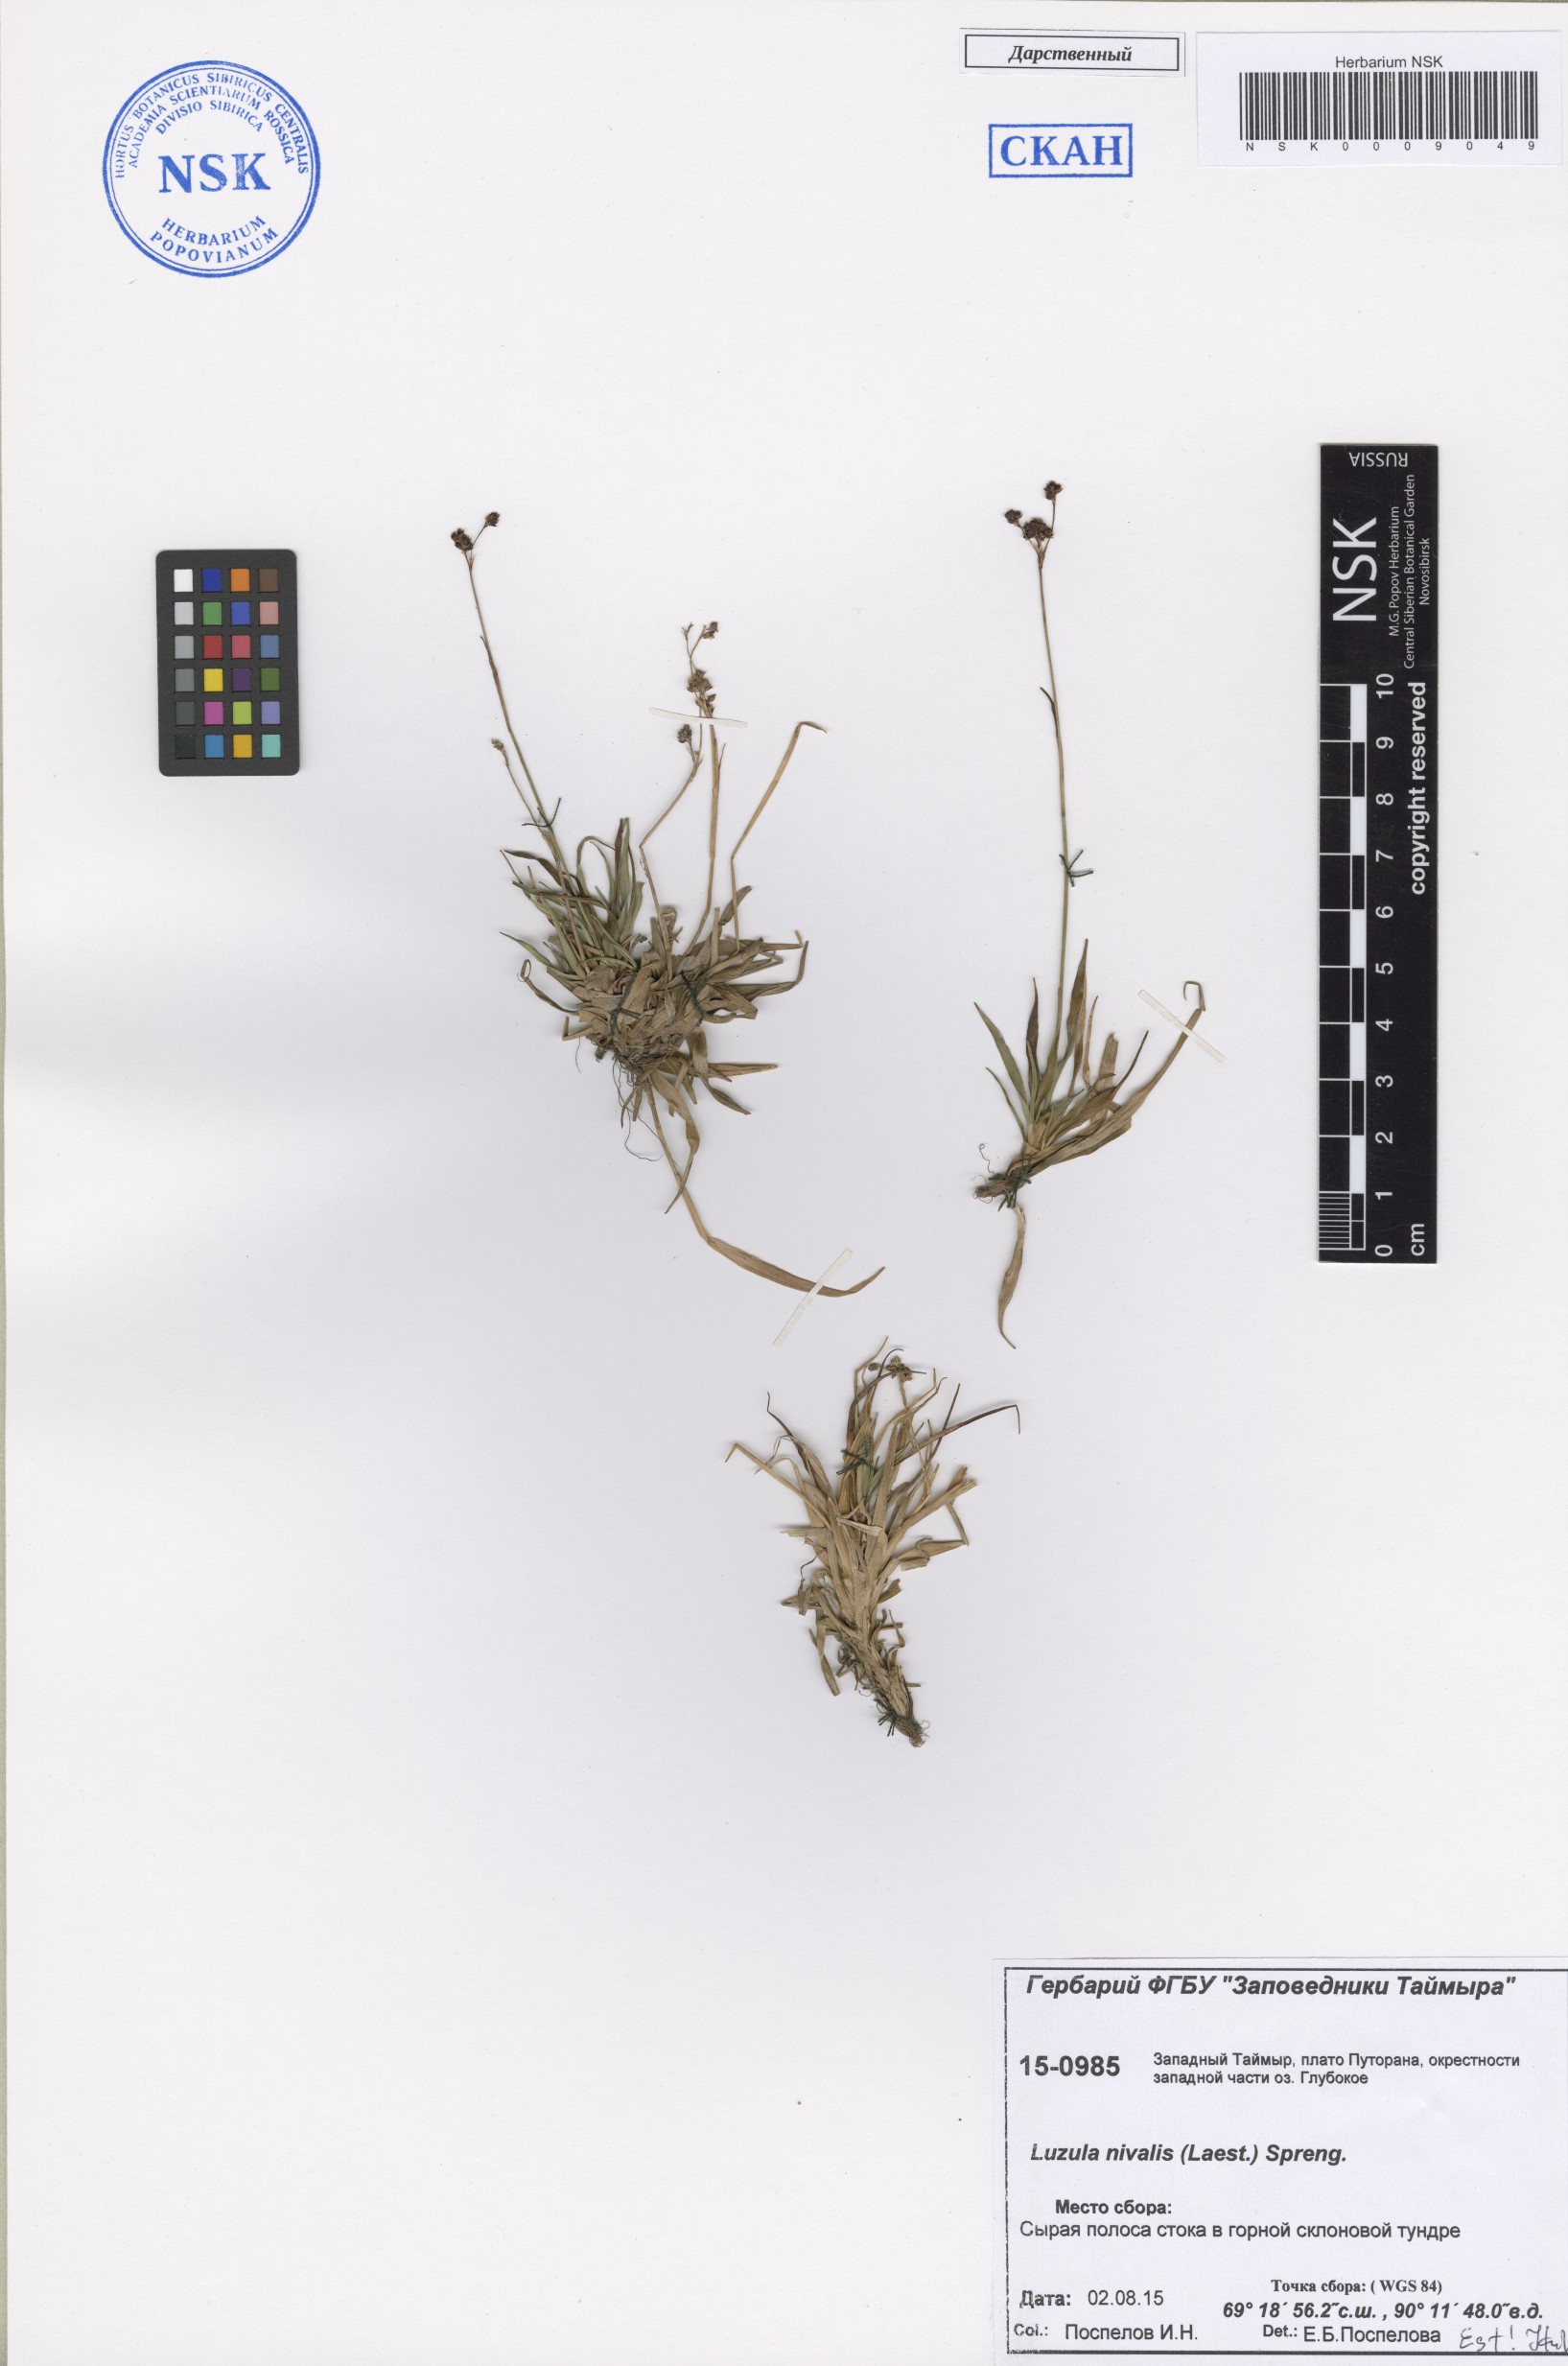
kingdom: Plantae
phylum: Tracheophyta
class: Liliopsida
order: Poales
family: Juncaceae
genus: Luzula
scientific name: Luzula nivalis
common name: Arctic woodrush
